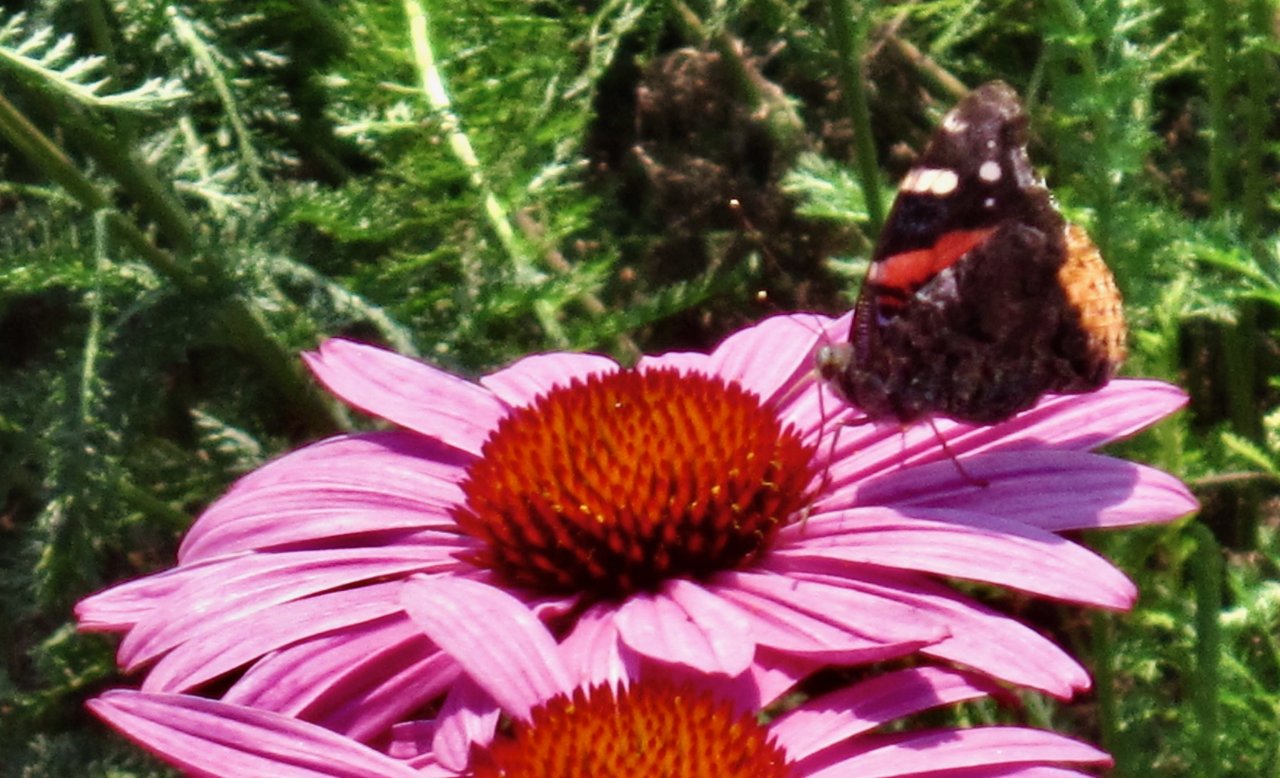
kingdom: Animalia
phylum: Arthropoda
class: Insecta
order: Lepidoptera
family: Nymphalidae
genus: Vanessa
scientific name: Vanessa atalanta
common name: Red Admiral
